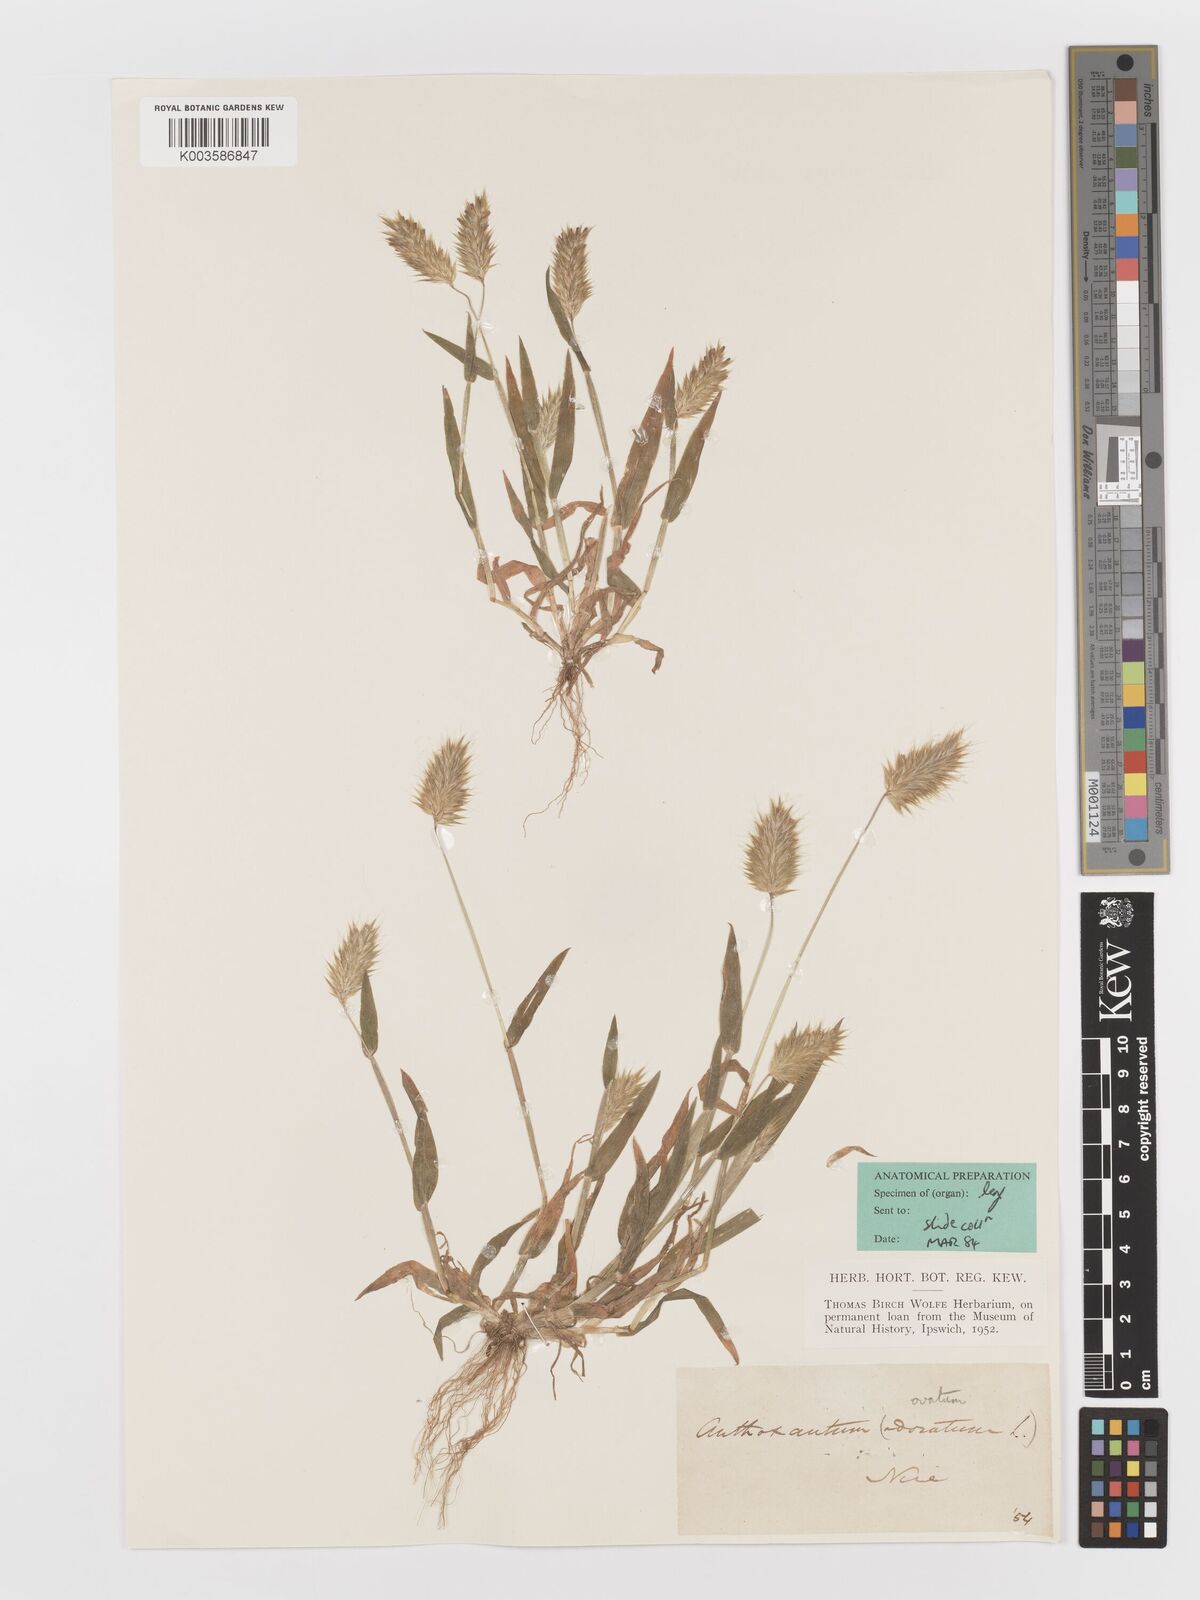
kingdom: Plantae
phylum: Tracheophyta
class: Liliopsida
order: Poales
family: Poaceae
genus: Anthoxanthum
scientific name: Anthoxanthum
